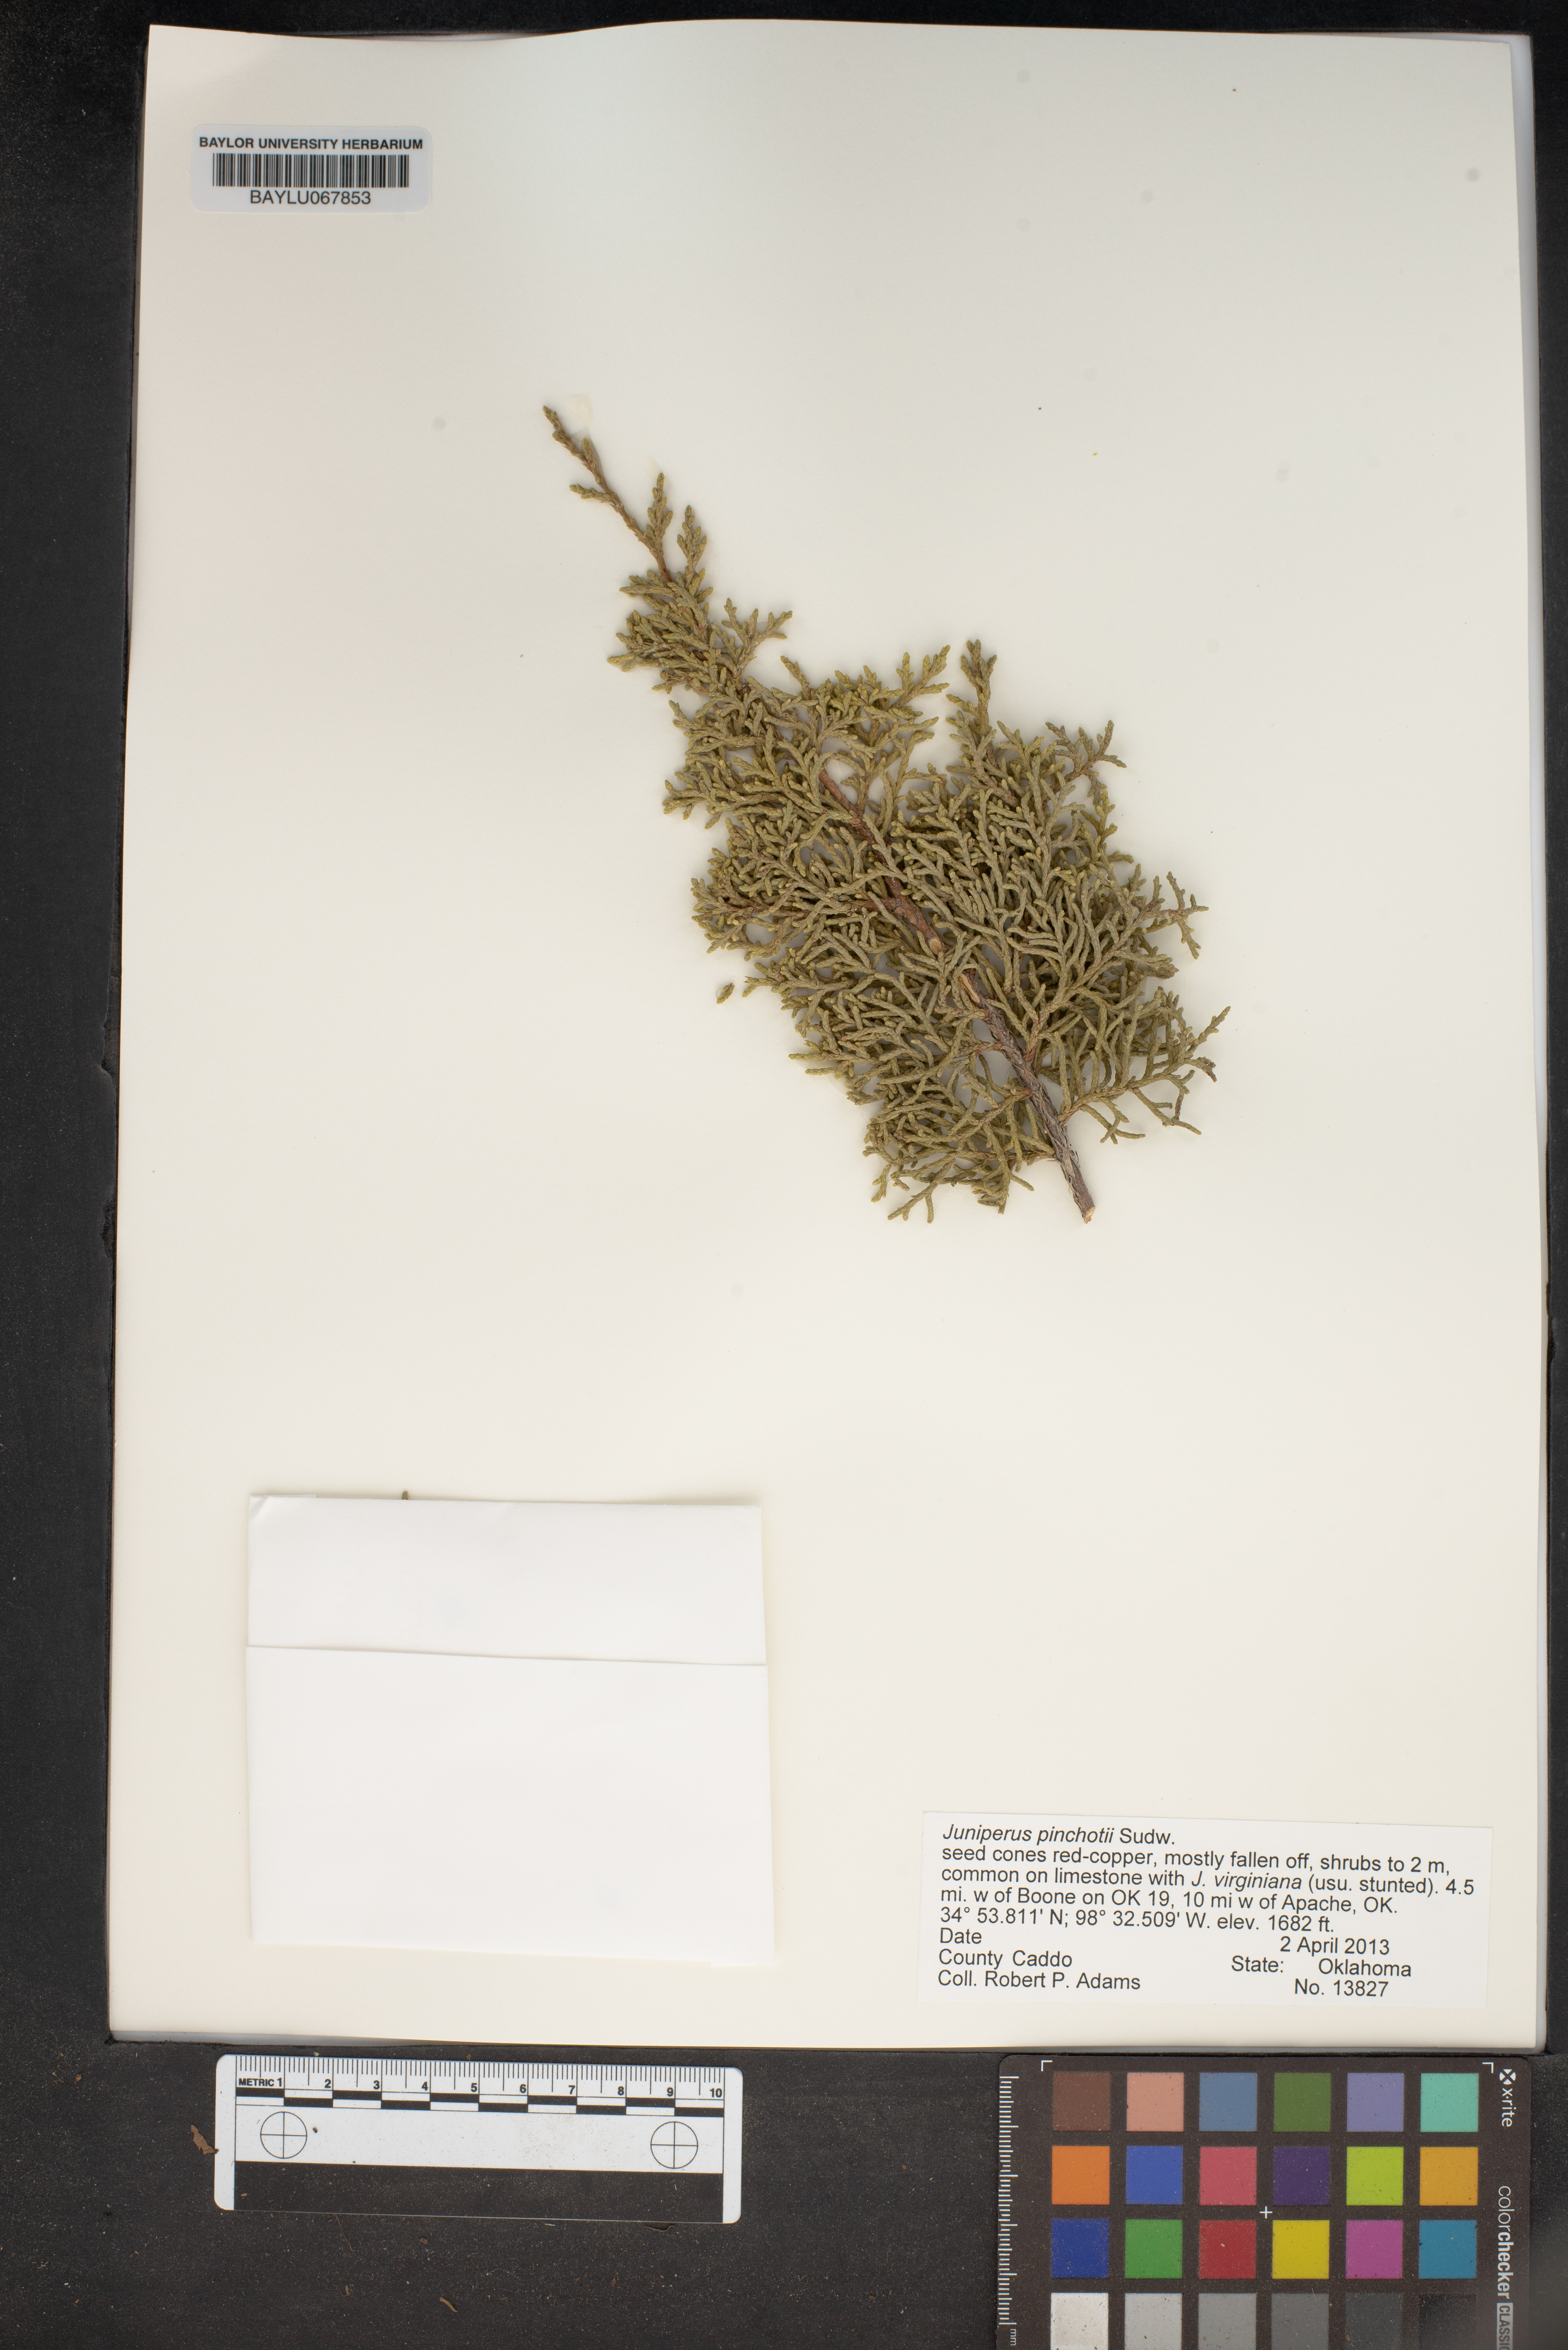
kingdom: Plantae
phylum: Tracheophyta
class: Pinopsida
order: Pinales
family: Cupressaceae
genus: Juniperus
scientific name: Juniperus pinchotii
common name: Pinchot juniper
